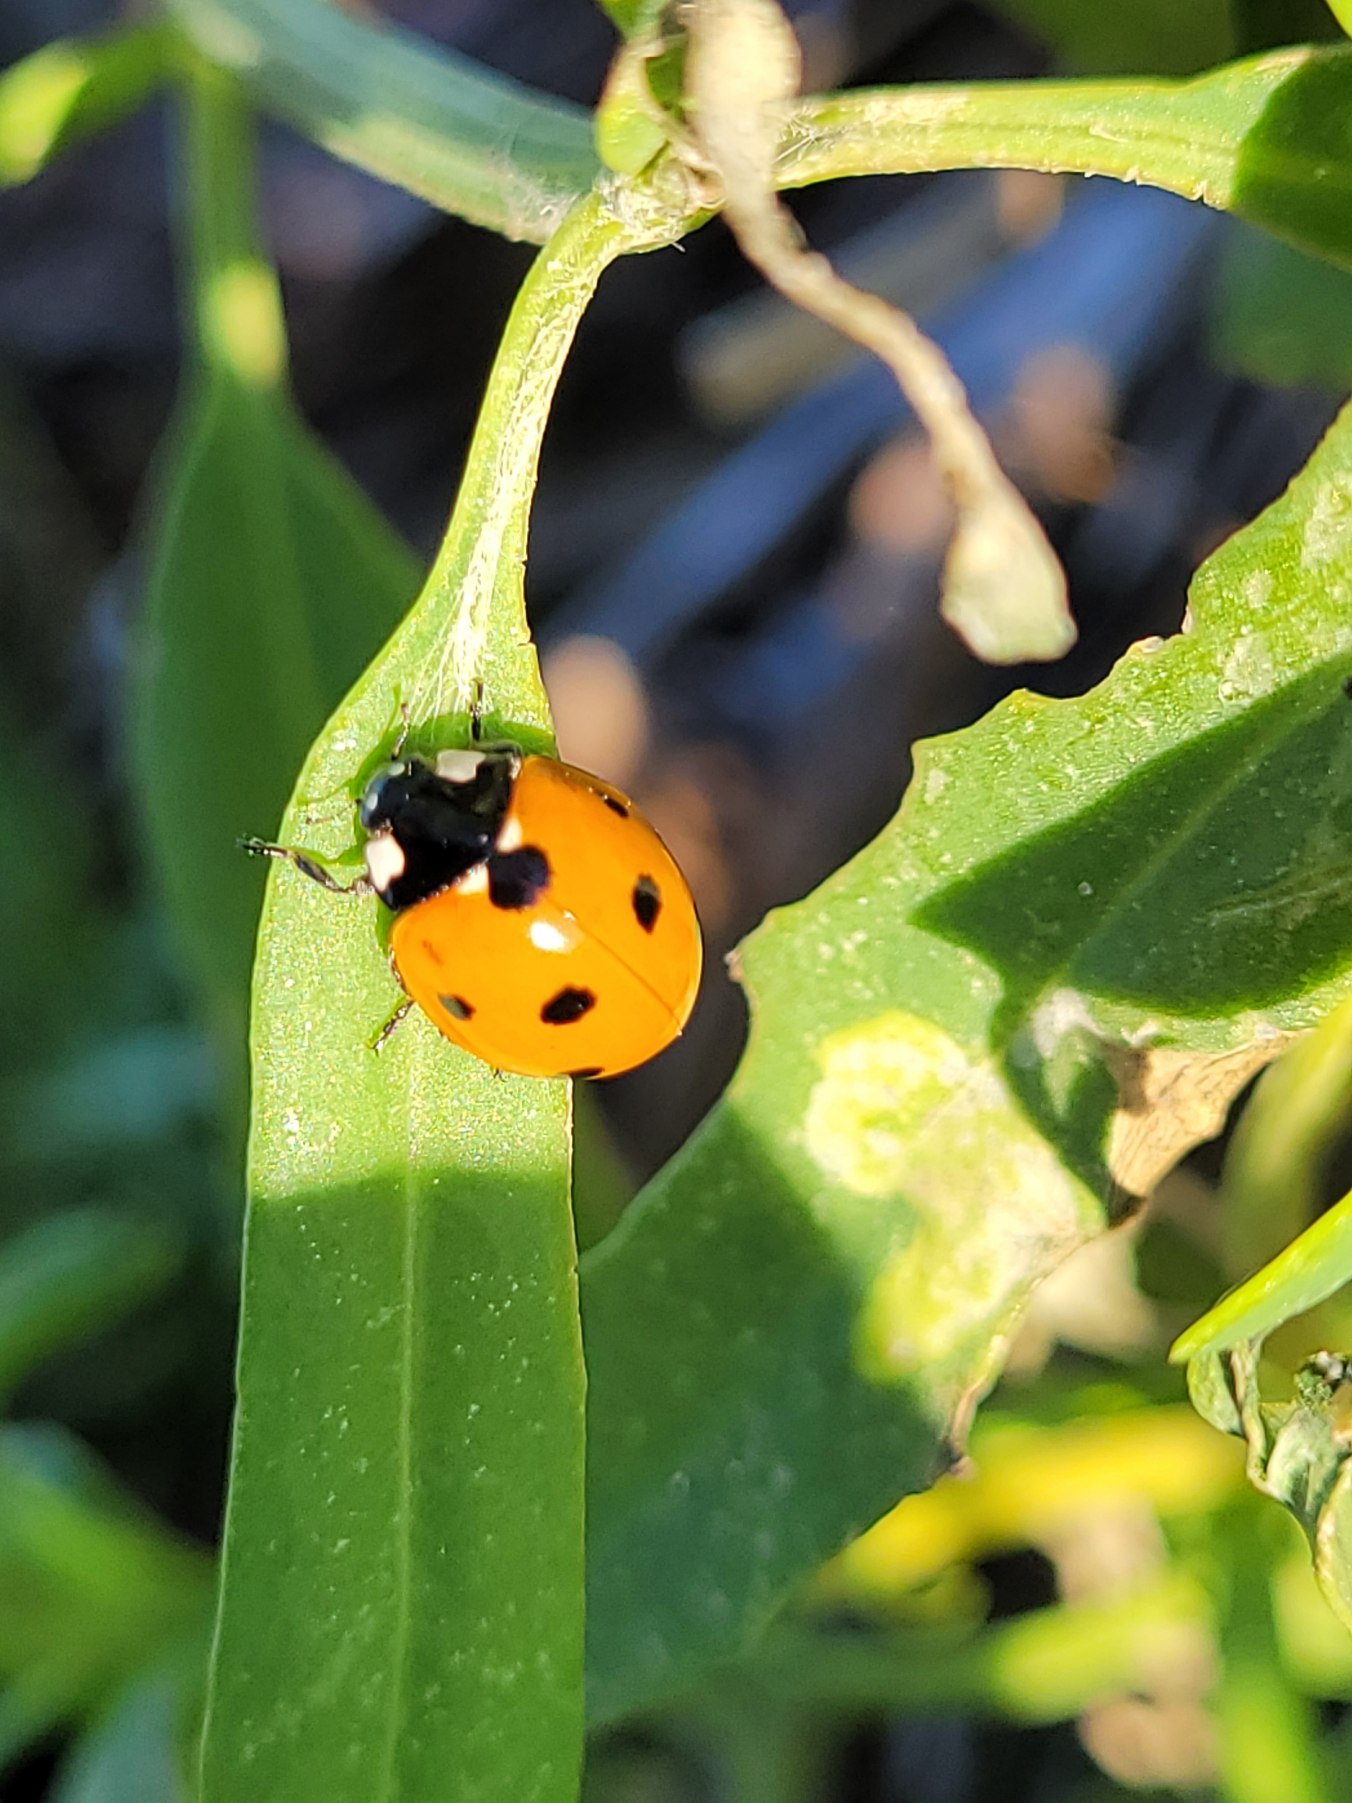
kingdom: Animalia
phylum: Arthropoda
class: Insecta
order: Coleoptera
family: Coccinellidae
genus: Coccinella
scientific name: Coccinella septempunctata
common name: Syvplettet mariehøne
